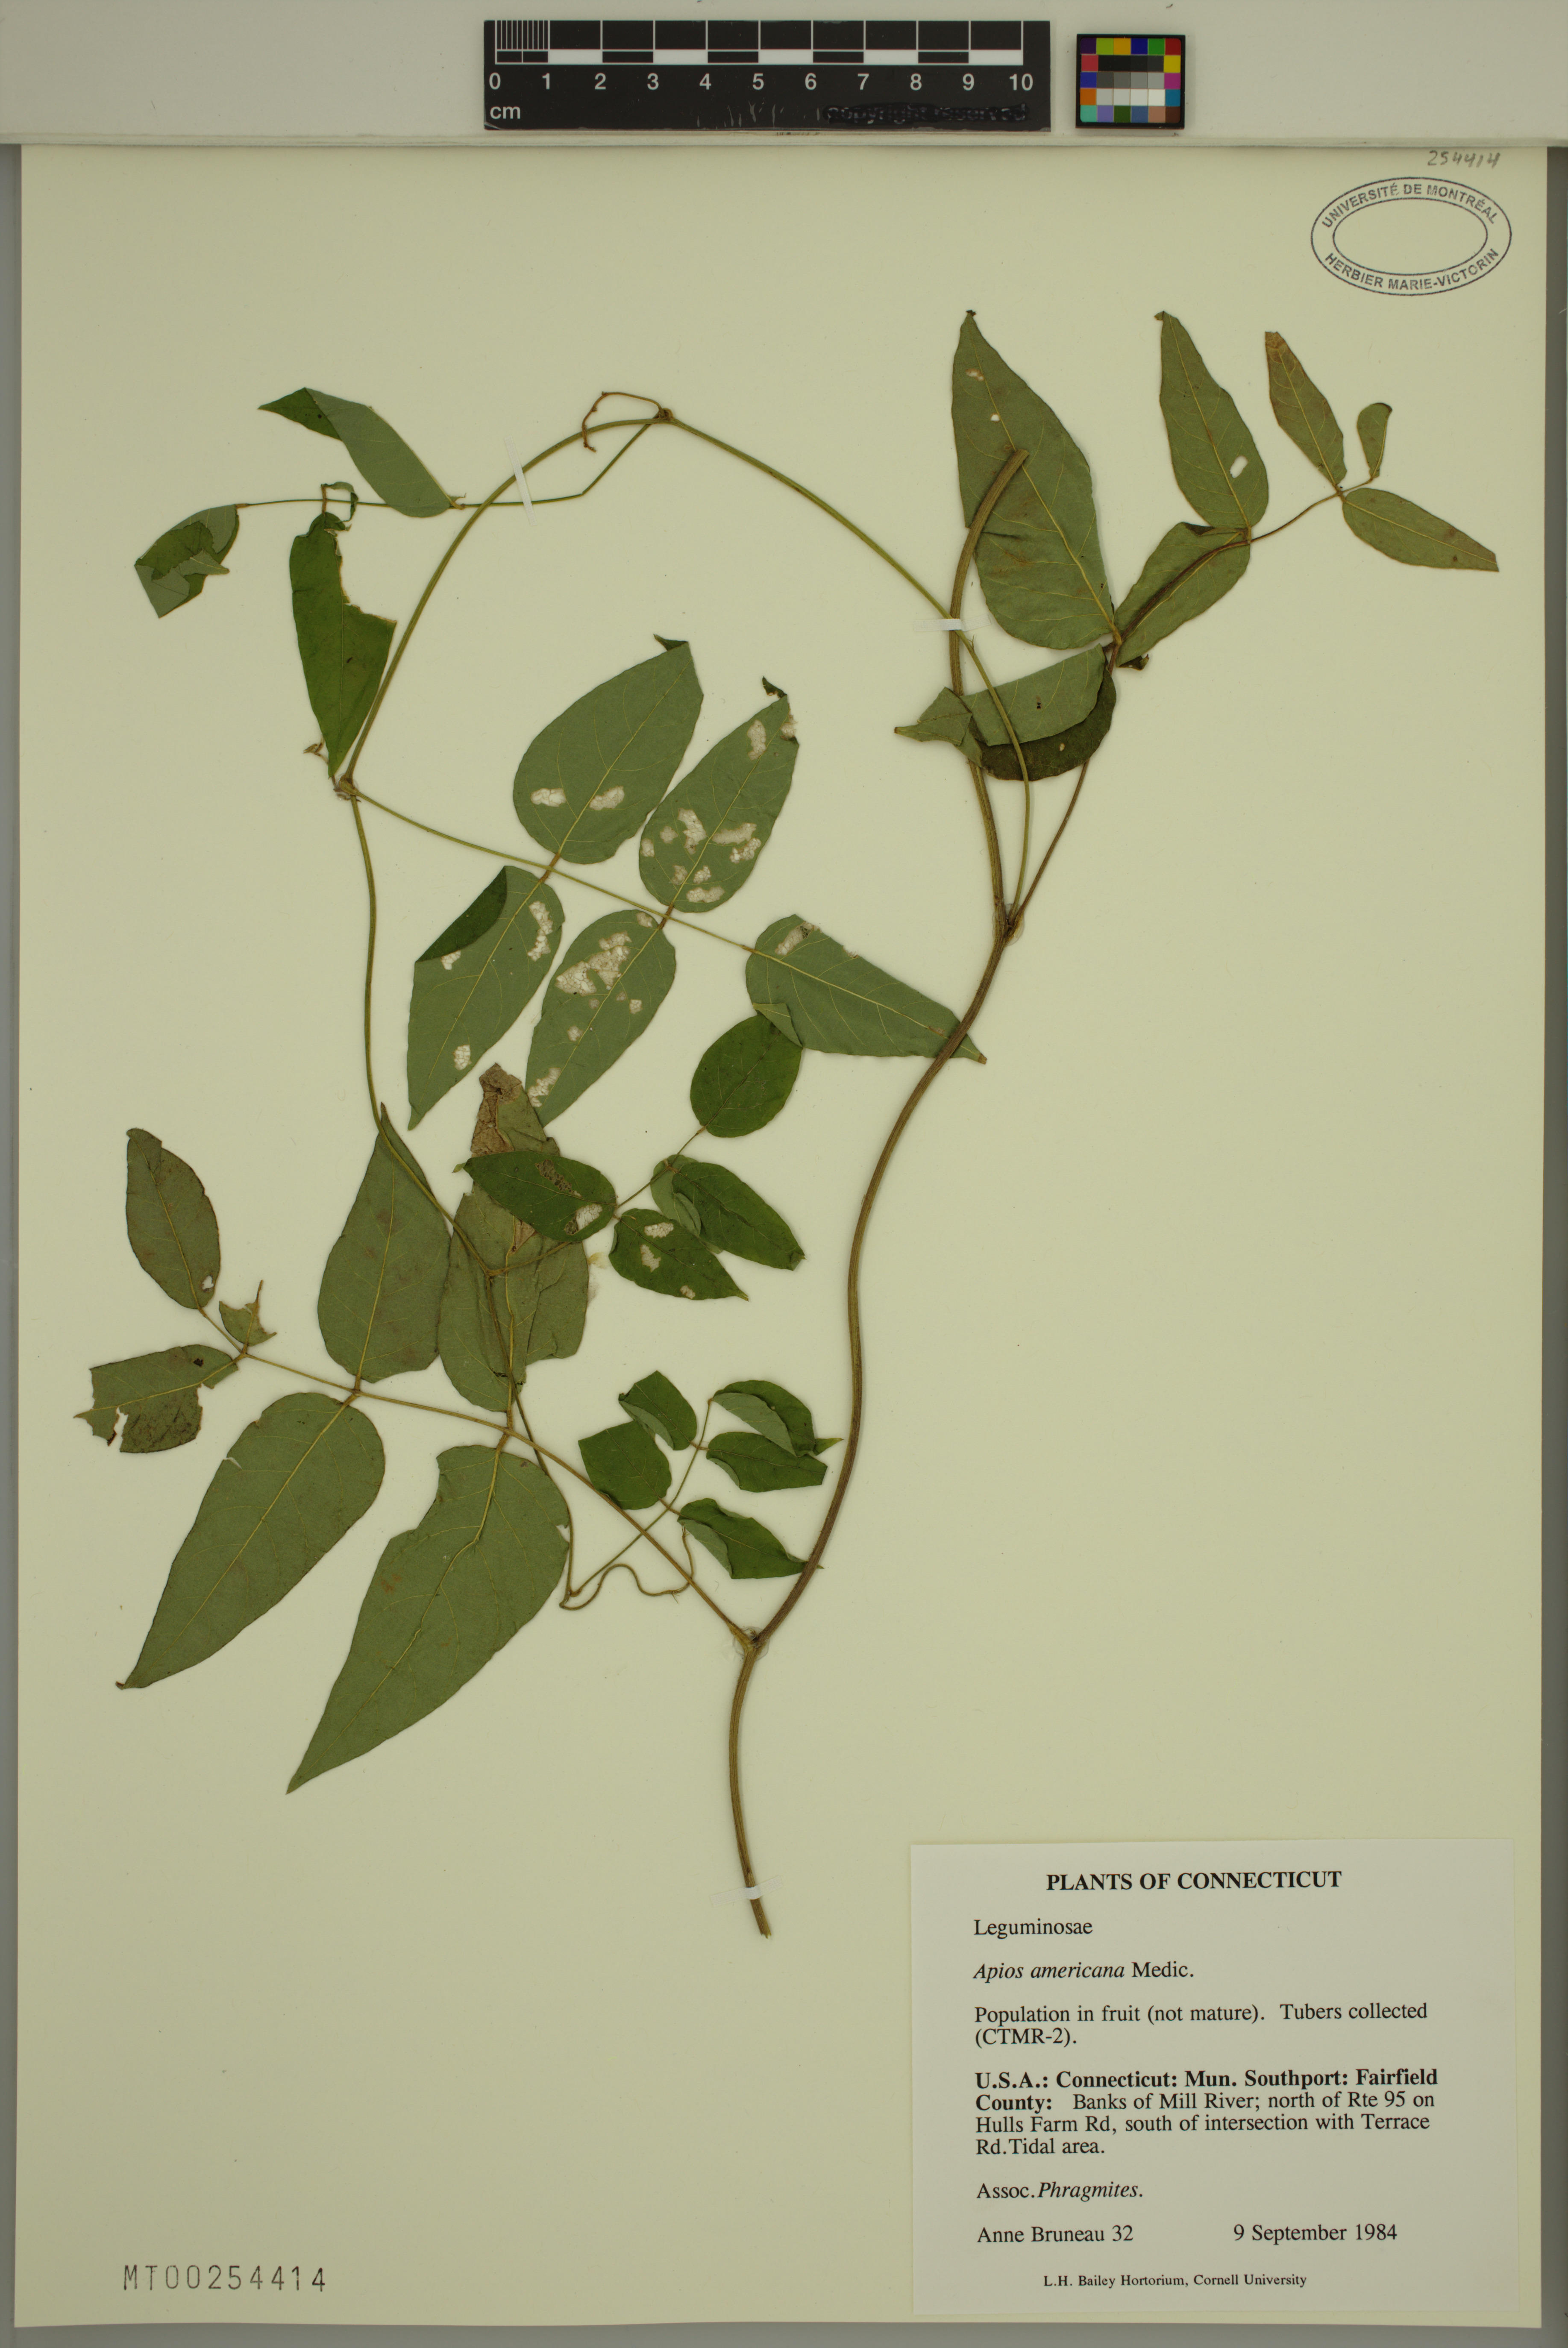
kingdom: Plantae
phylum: Tracheophyta
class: Magnoliopsida
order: Fabales
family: Fabaceae
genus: Apios
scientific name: Apios americana
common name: American potato-bean
